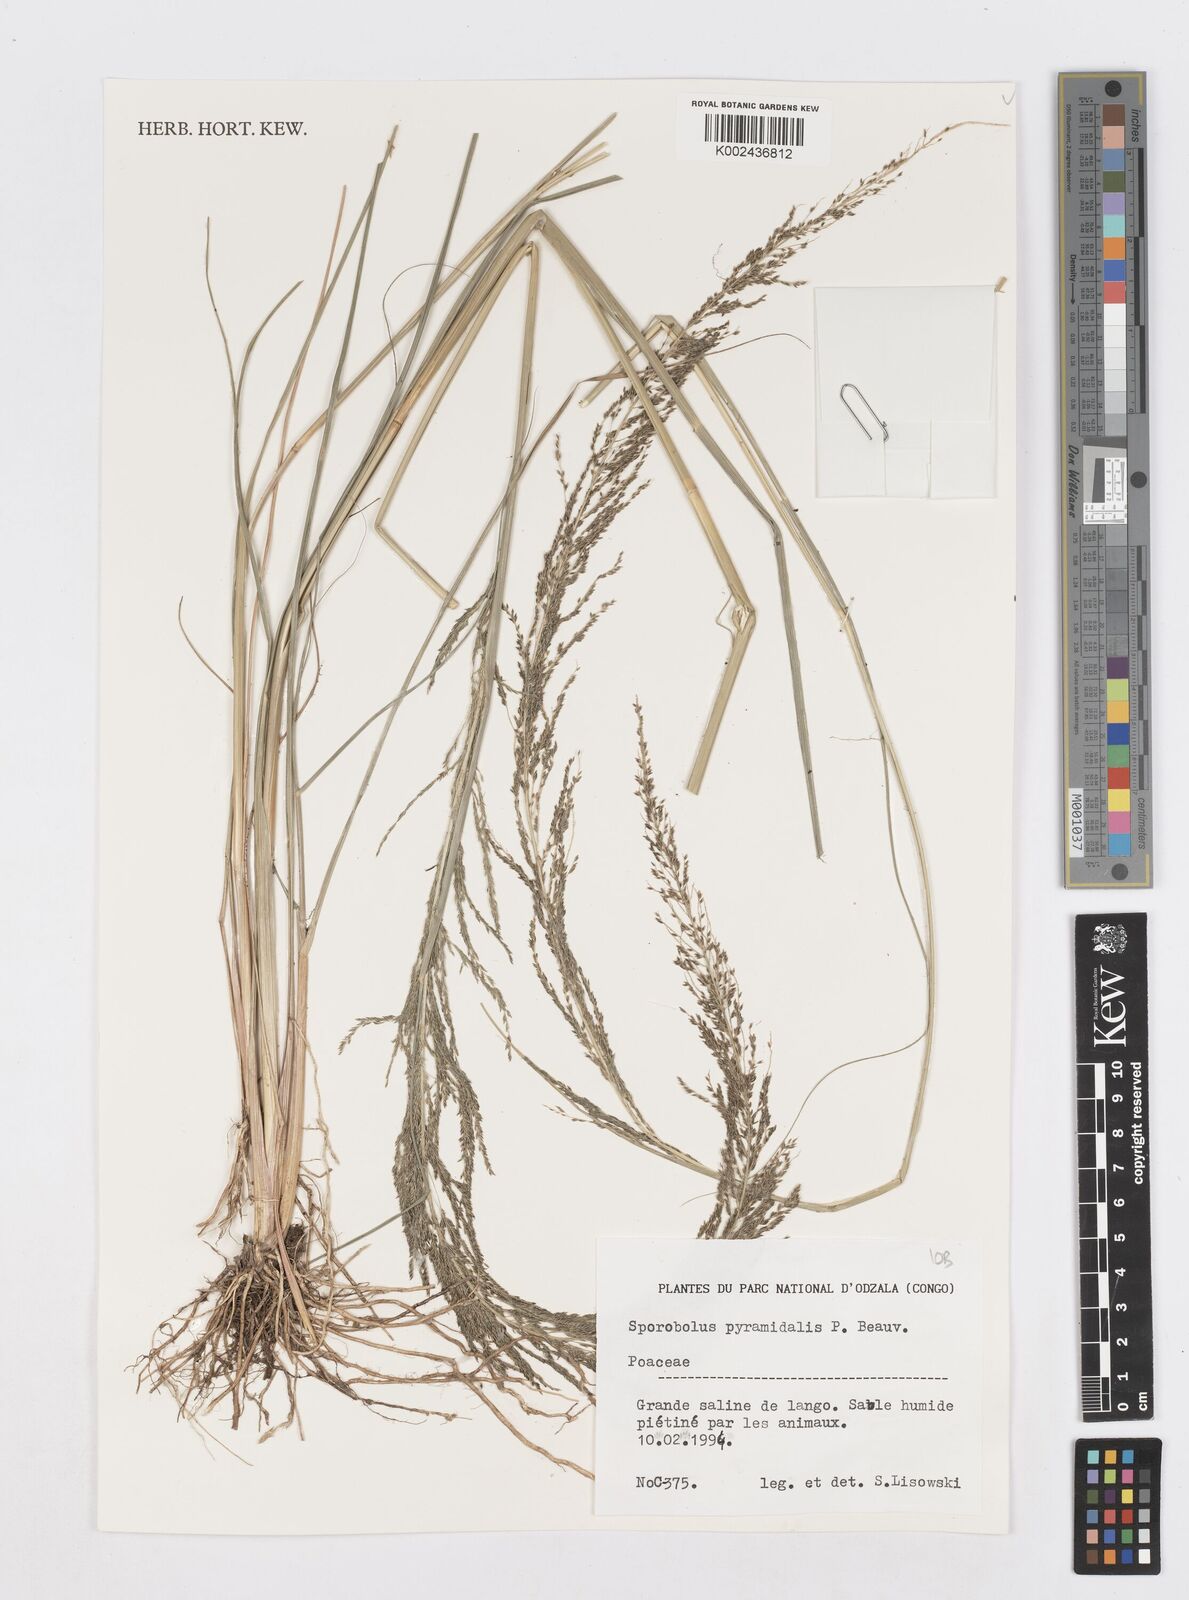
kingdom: Plantae
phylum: Tracheophyta
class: Liliopsida
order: Poales
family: Poaceae
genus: Sporobolus
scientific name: Sporobolus pyramidalis
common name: West indian dropseed
